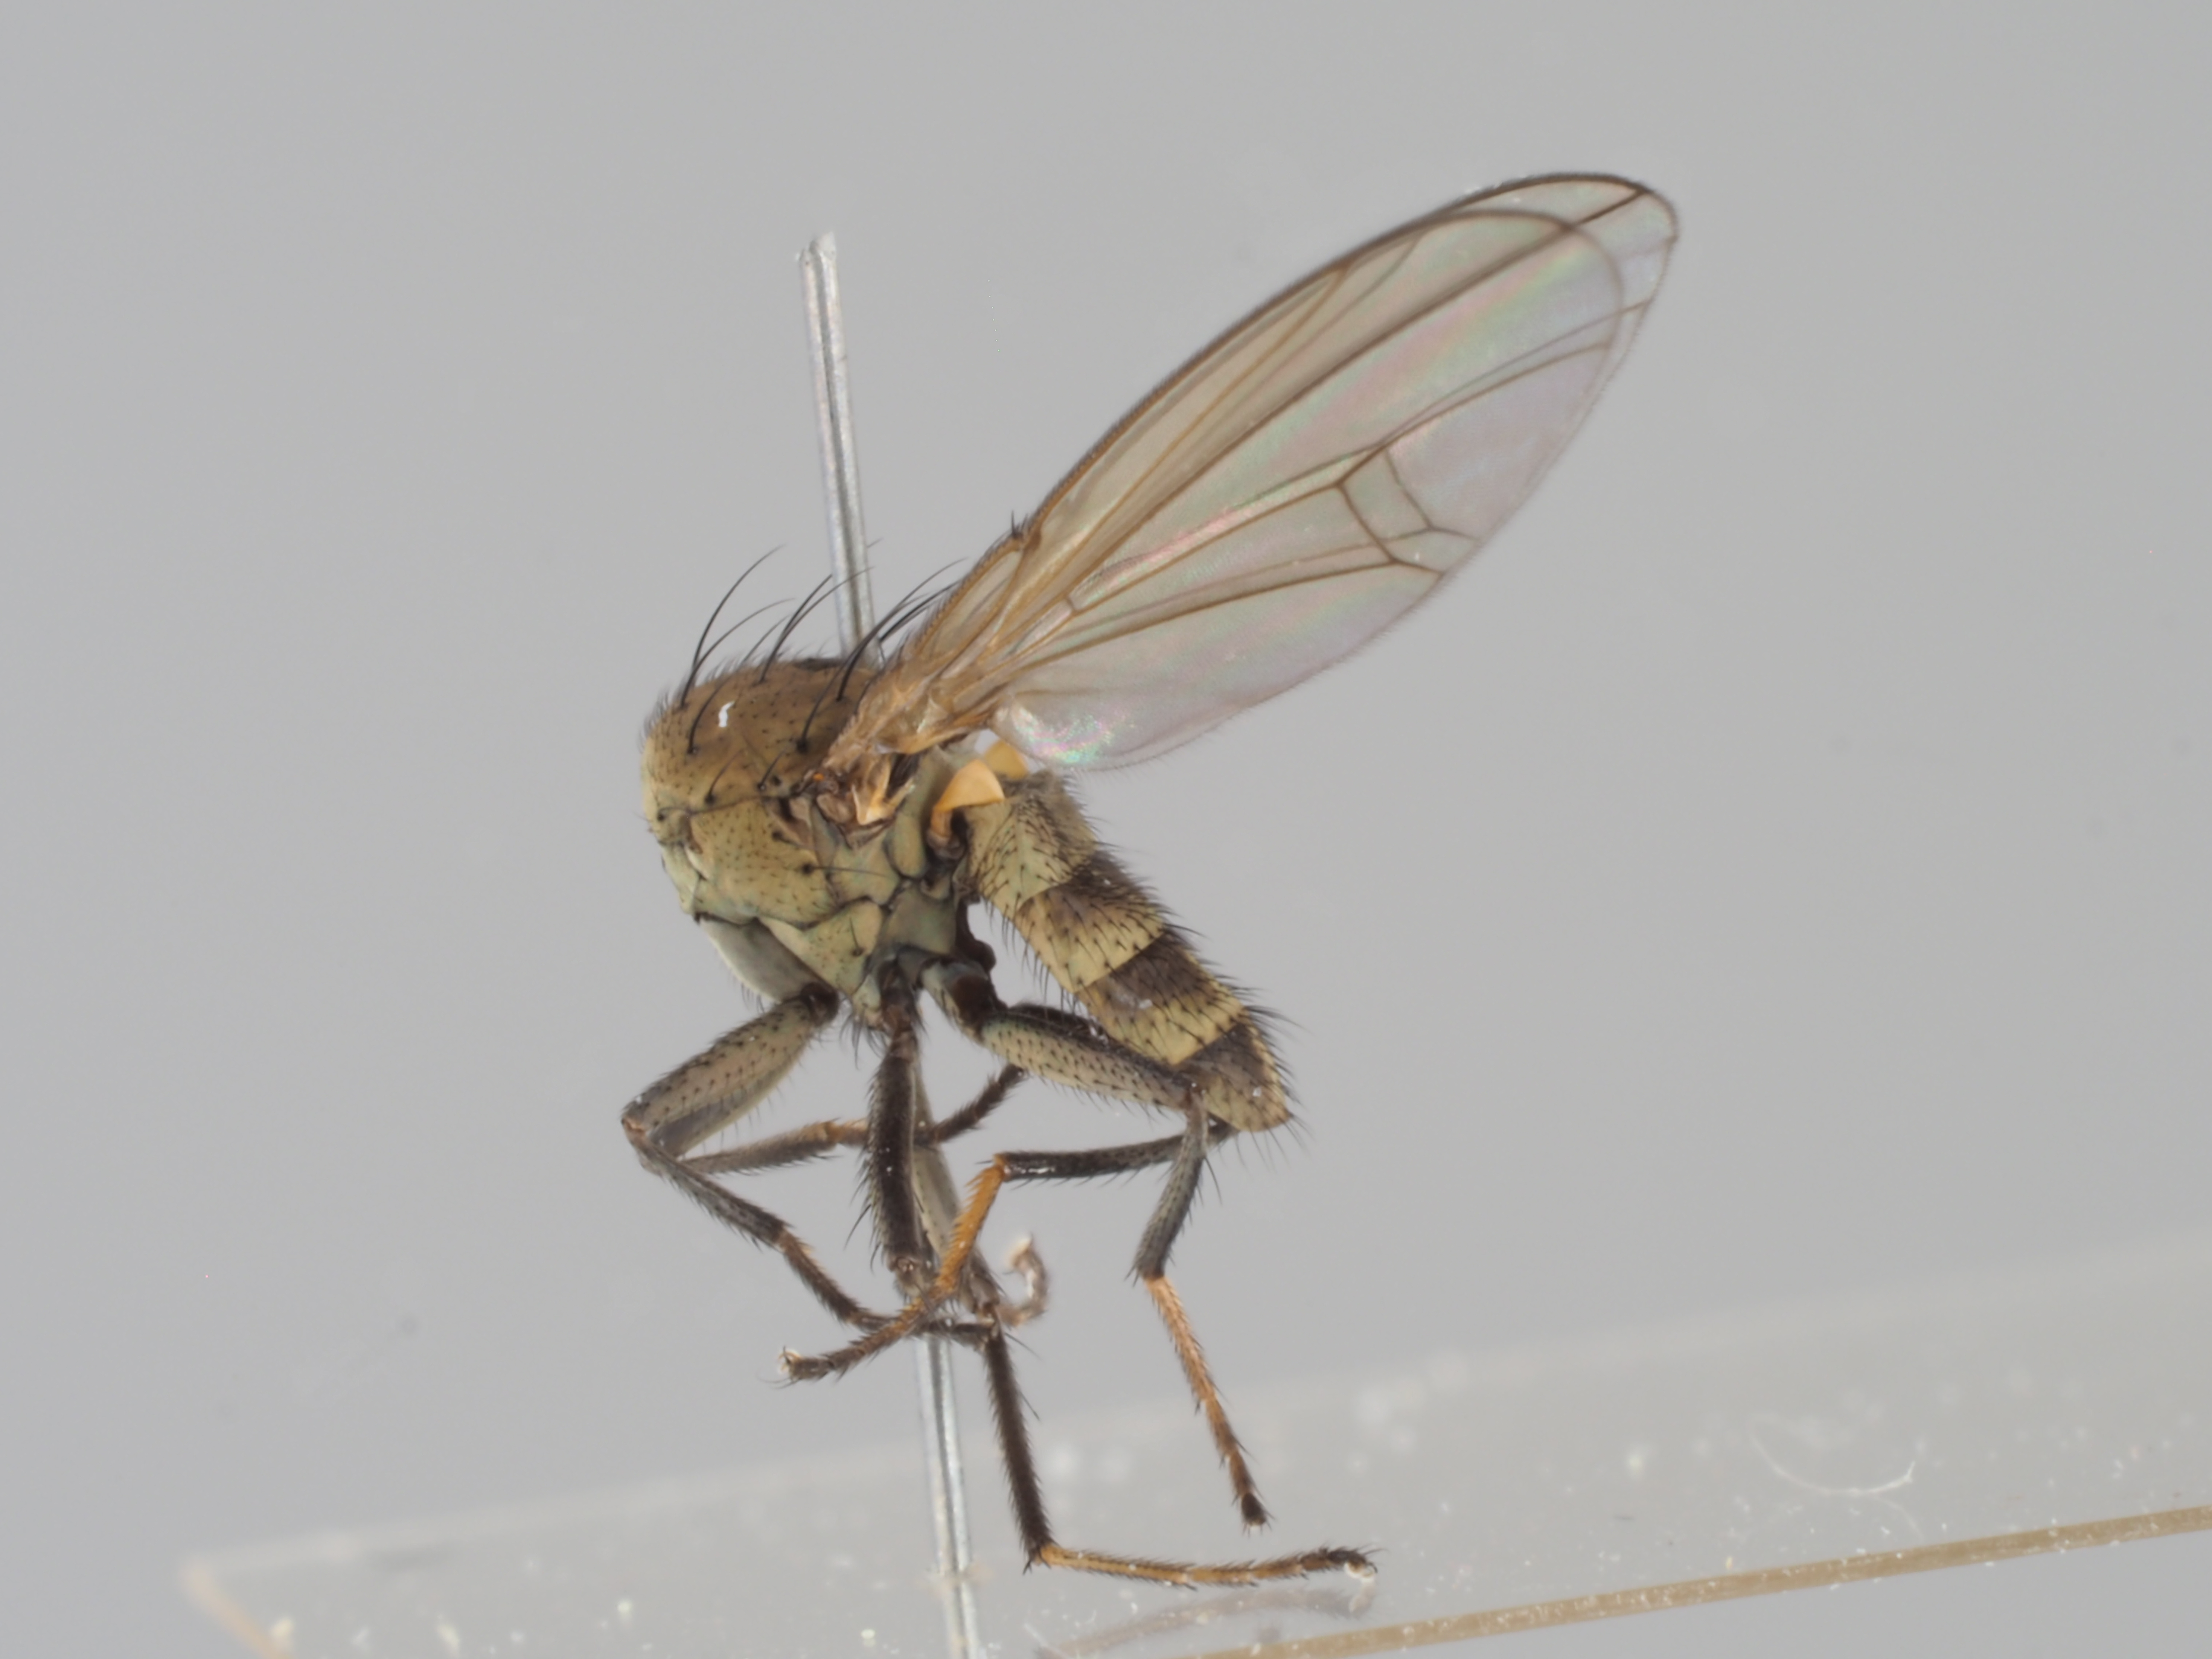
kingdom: Animalia
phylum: Arthropoda
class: Insecta
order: Diptera
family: Ephydridae
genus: Notiphila
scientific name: Notiphila uliginosa
